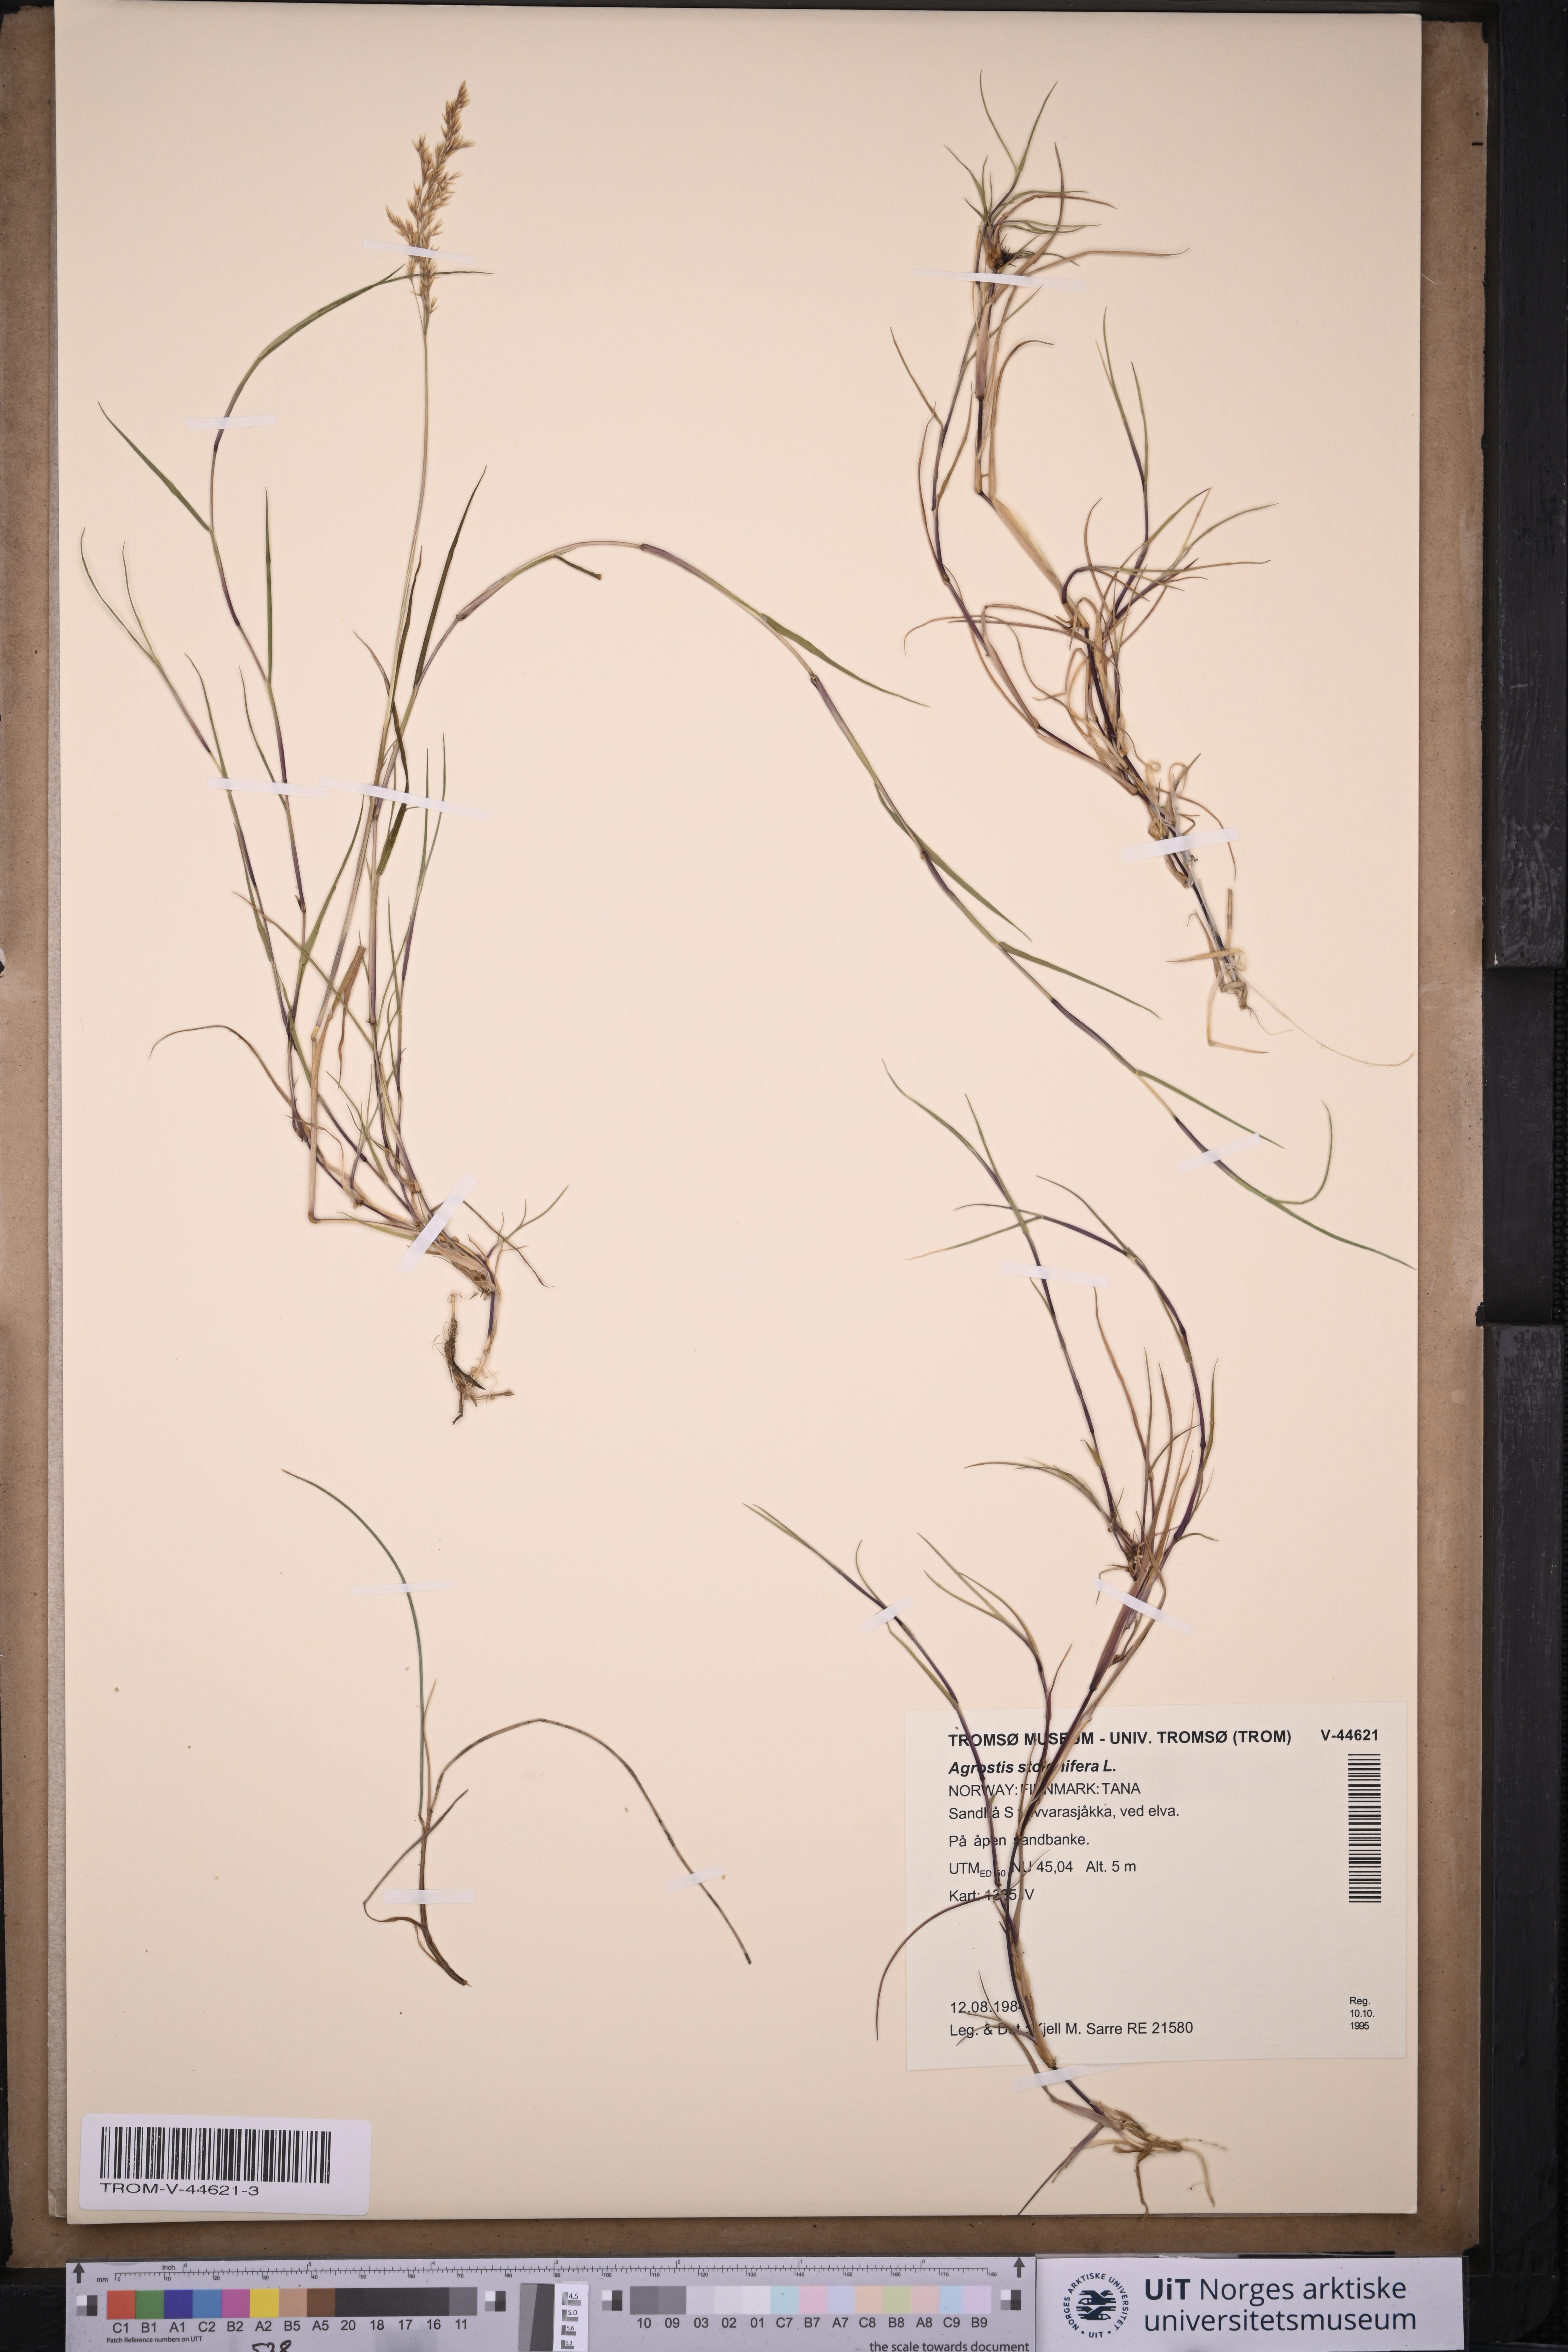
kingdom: Plantae
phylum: Tracheophyta
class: Liliopsida
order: Poales
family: Poaceae
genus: Agrostis
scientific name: Agrostis stolonifera
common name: Creeping bentgrass
